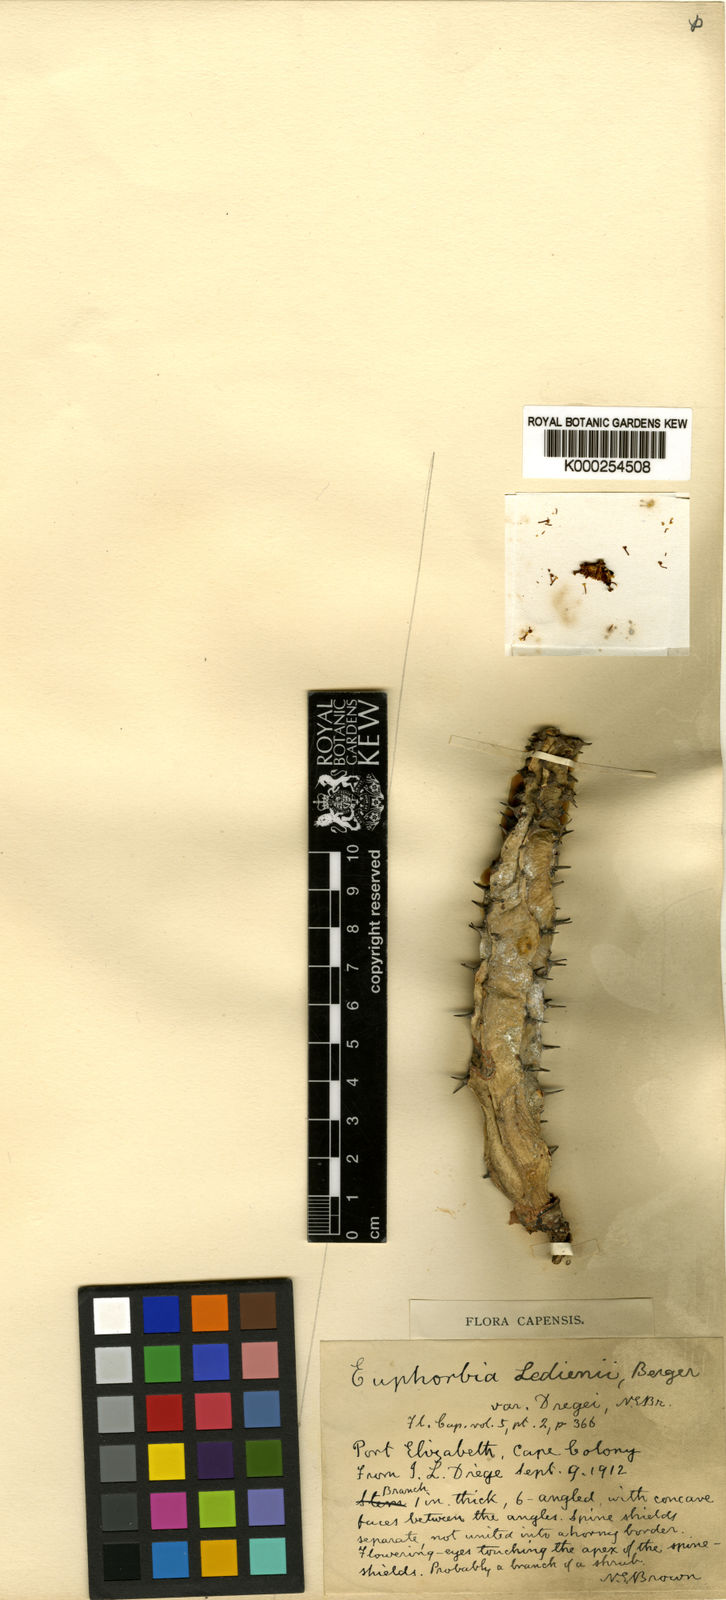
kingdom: Plantae
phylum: Tracheophyta
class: Magnoliopsida
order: Malpighiales
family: Euphorbiaceae
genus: Euphorbia
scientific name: Euphorbia caerulescens
